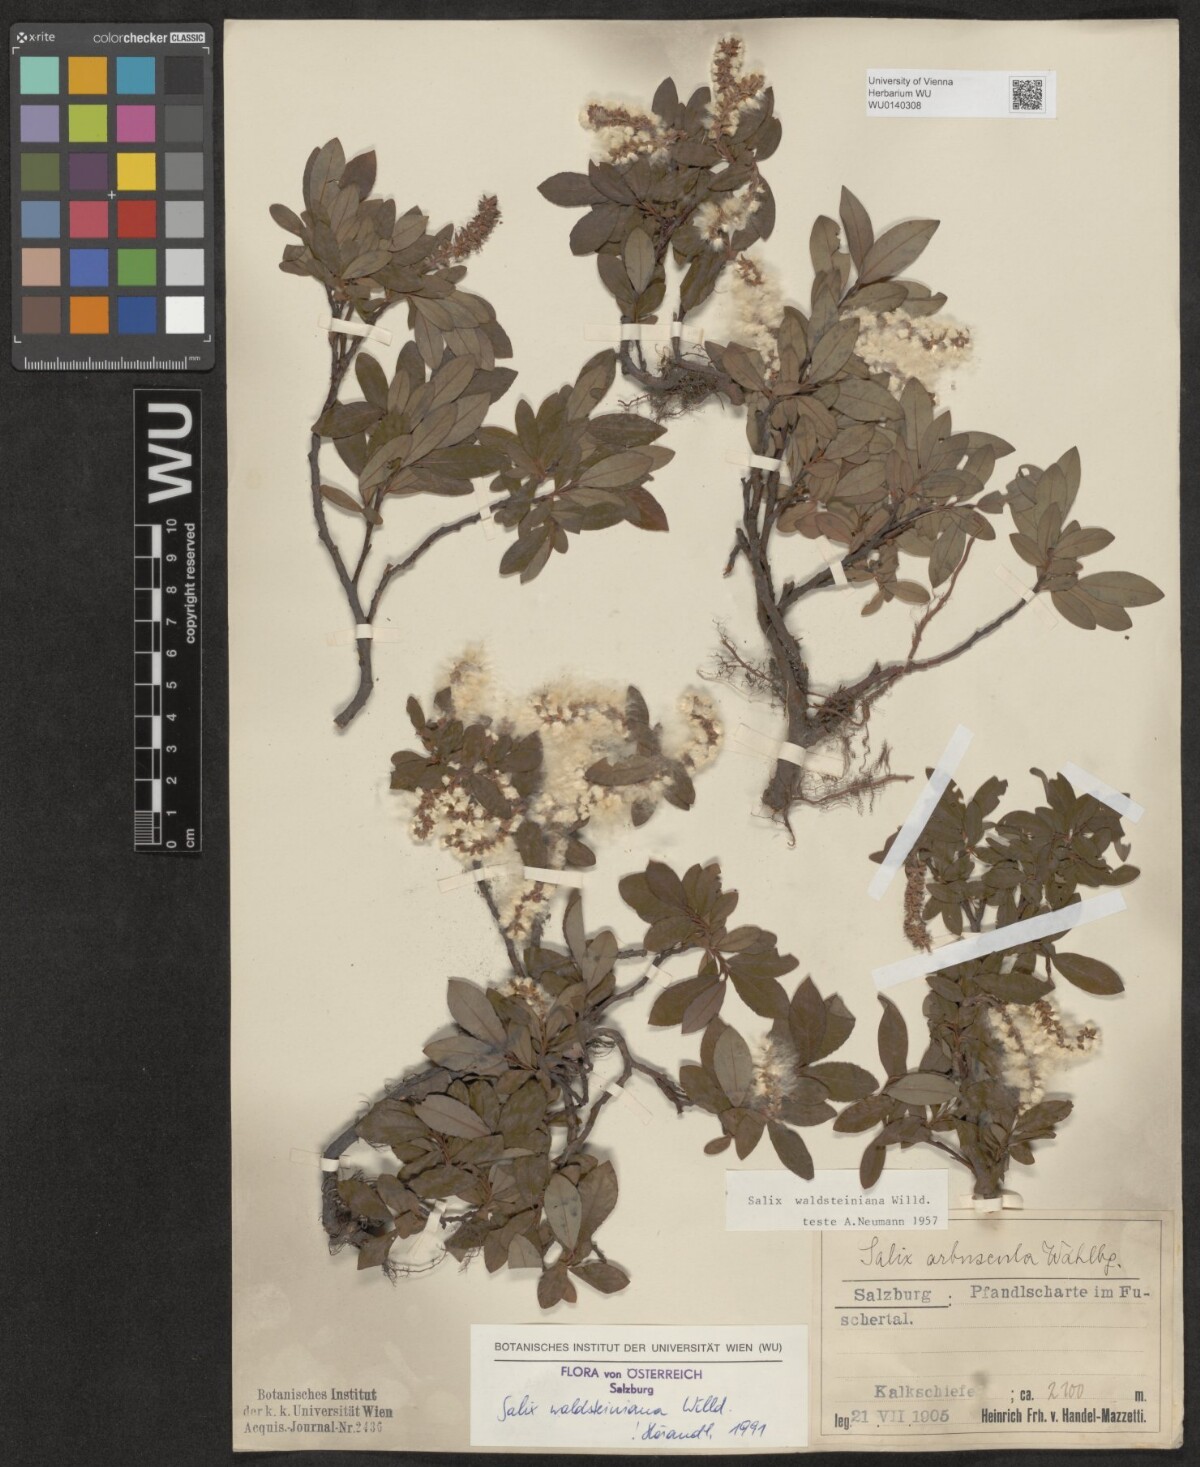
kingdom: Plantae
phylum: Tracheophyta
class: Magnoliopsida
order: Malpighiales
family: Salicaceae
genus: Salix
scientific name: Salix waldsteiniana
